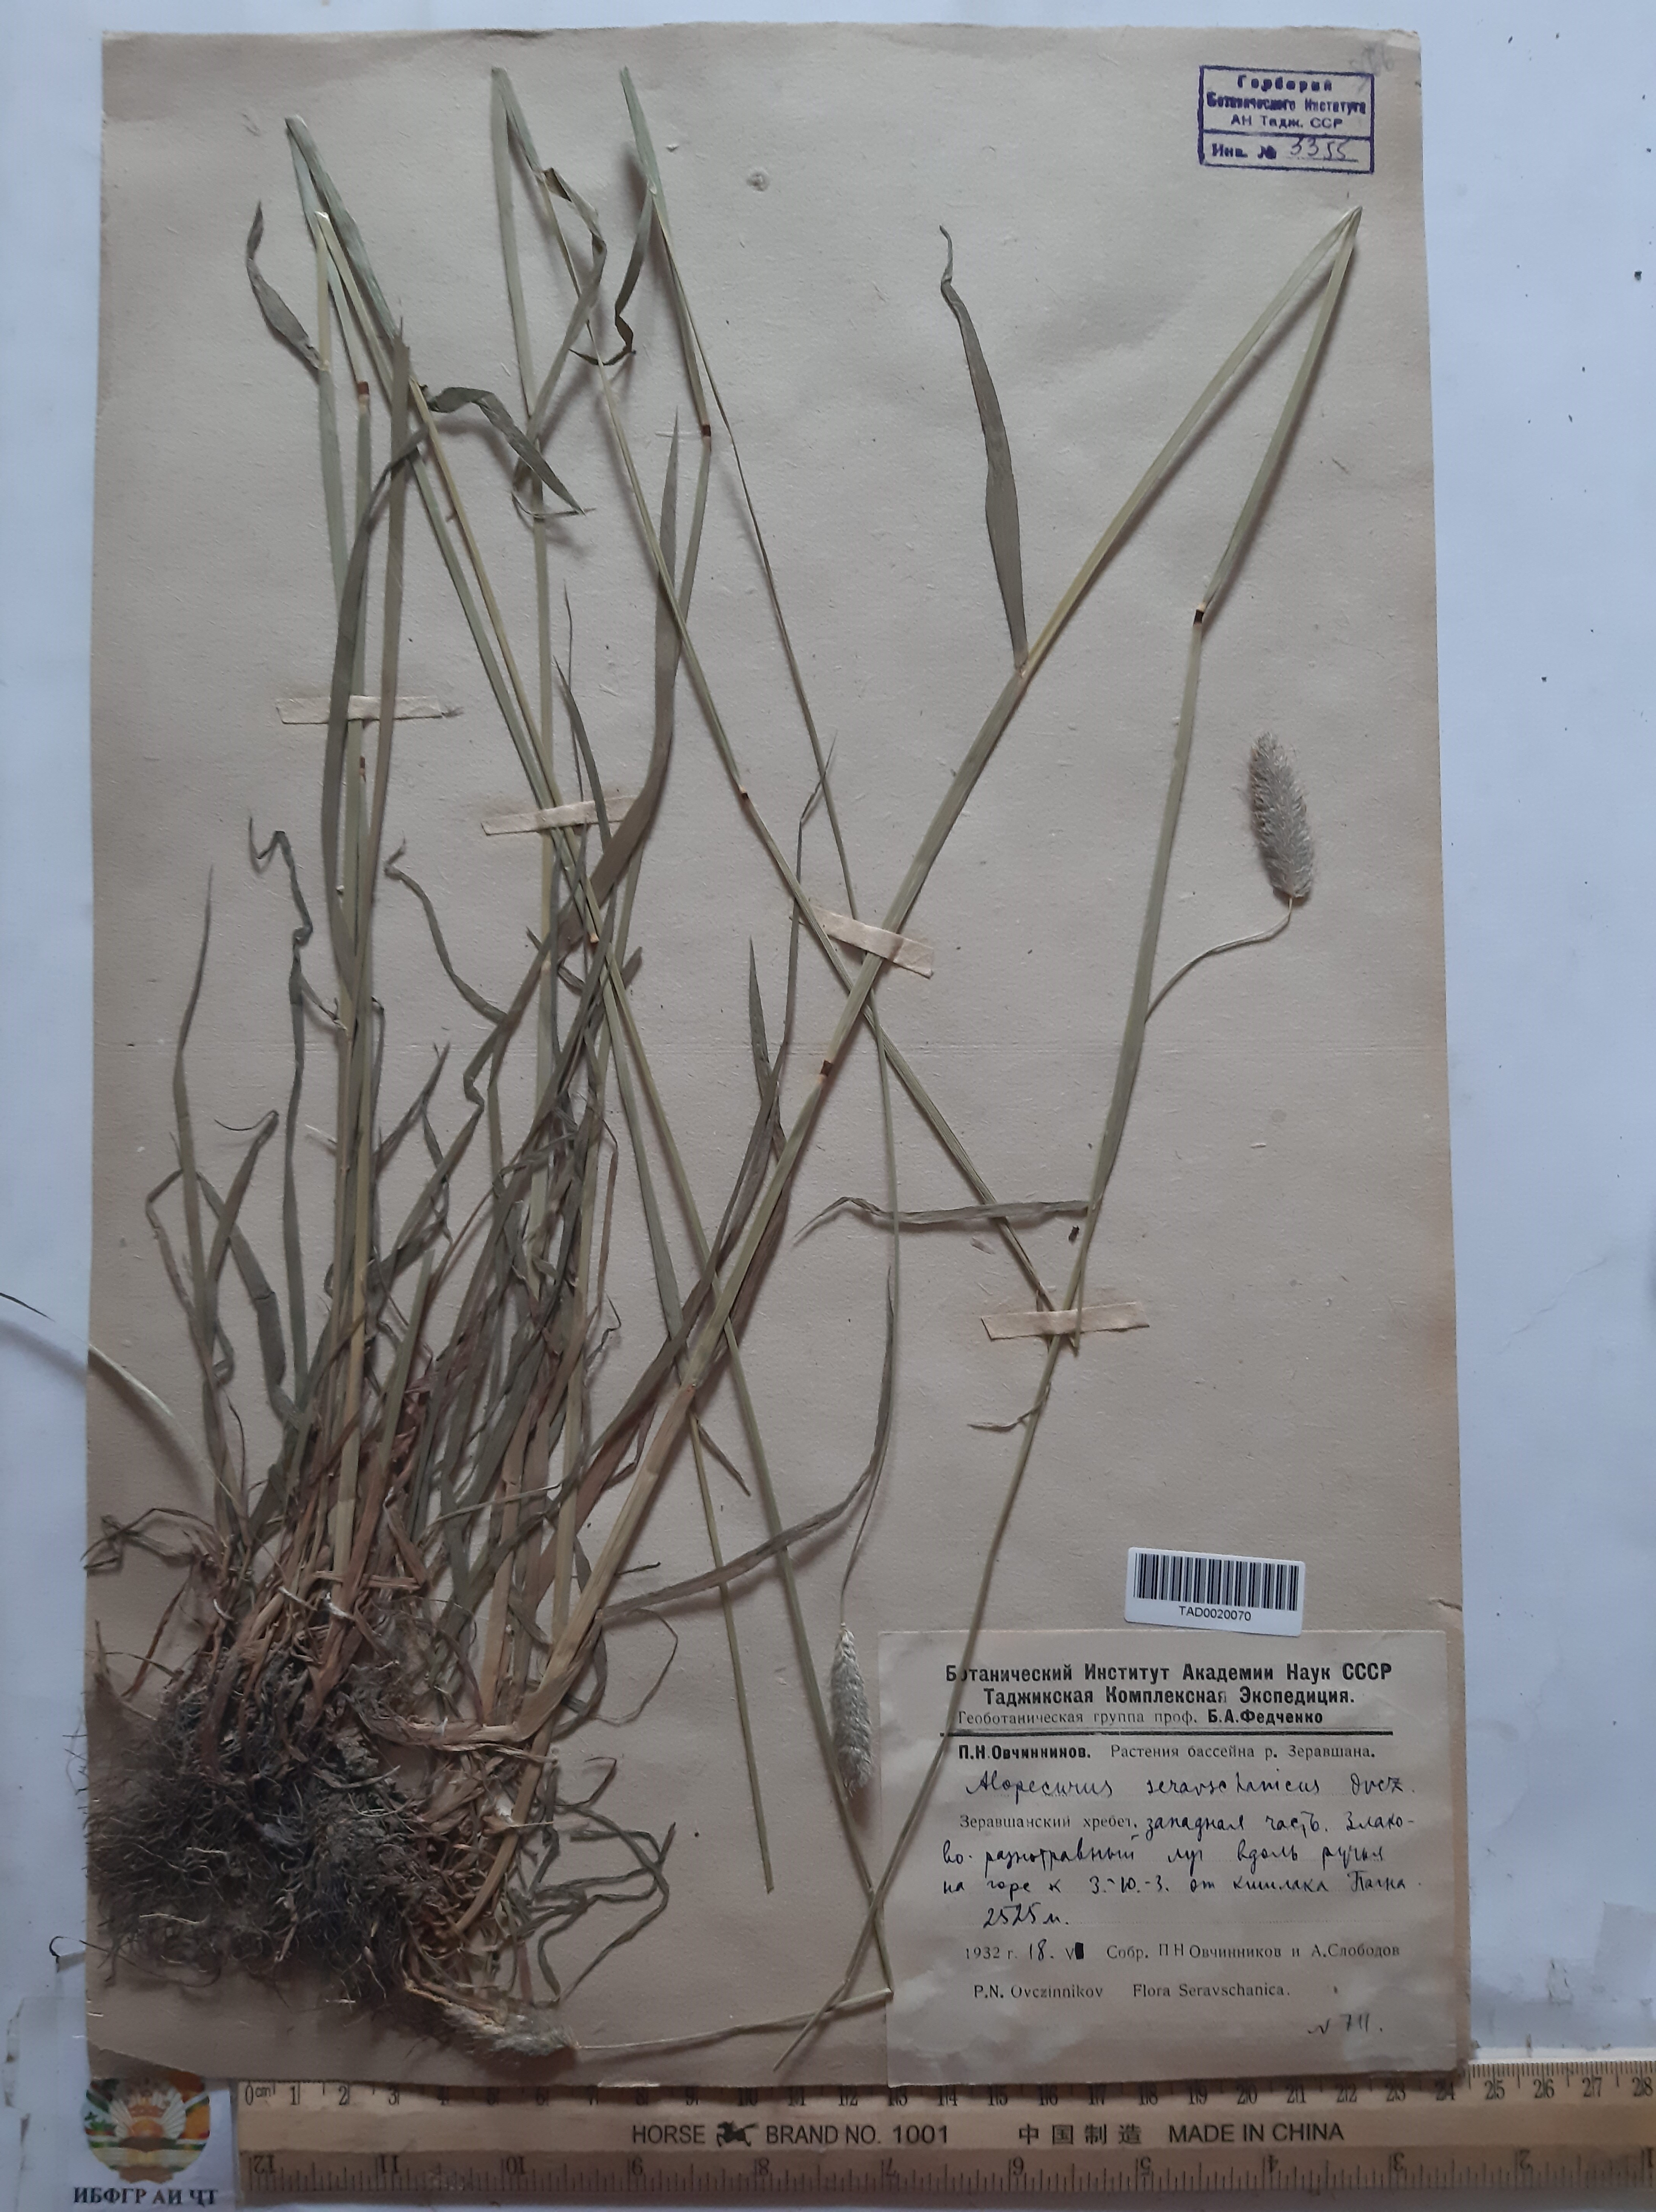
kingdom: Plantae
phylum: Tracheophyta
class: Liliopsida
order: Poales
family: Poaceae
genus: Alopecurus
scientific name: Alopecurus pratensis
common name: Meadow foxtail
